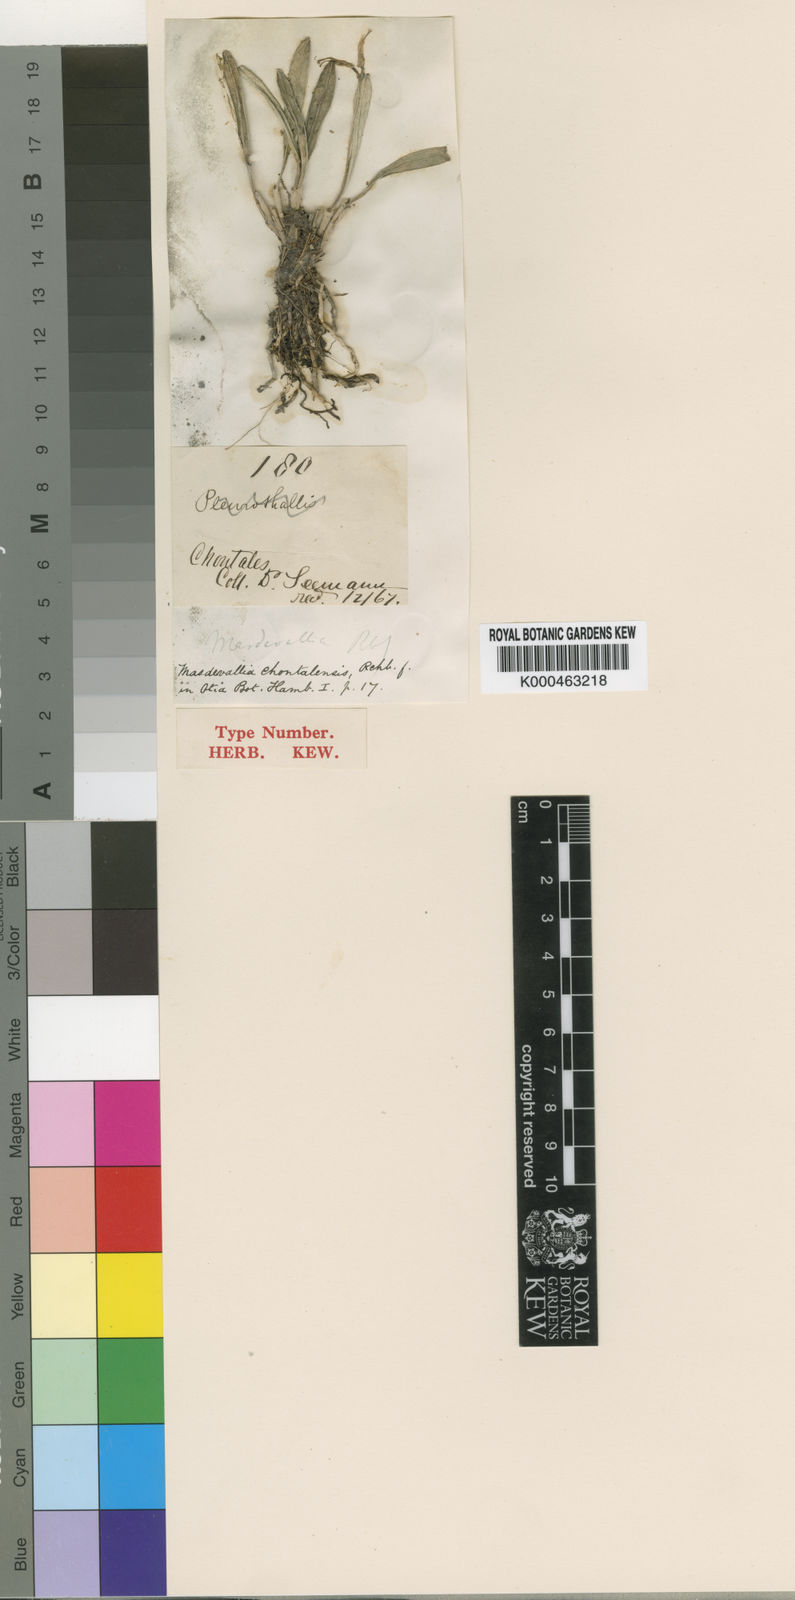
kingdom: Plantae
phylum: Tracheophyta
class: Liliopsida
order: Asparagales
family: Orchidaceae
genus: Masdevallia
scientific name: Masdevallia chontalensis
